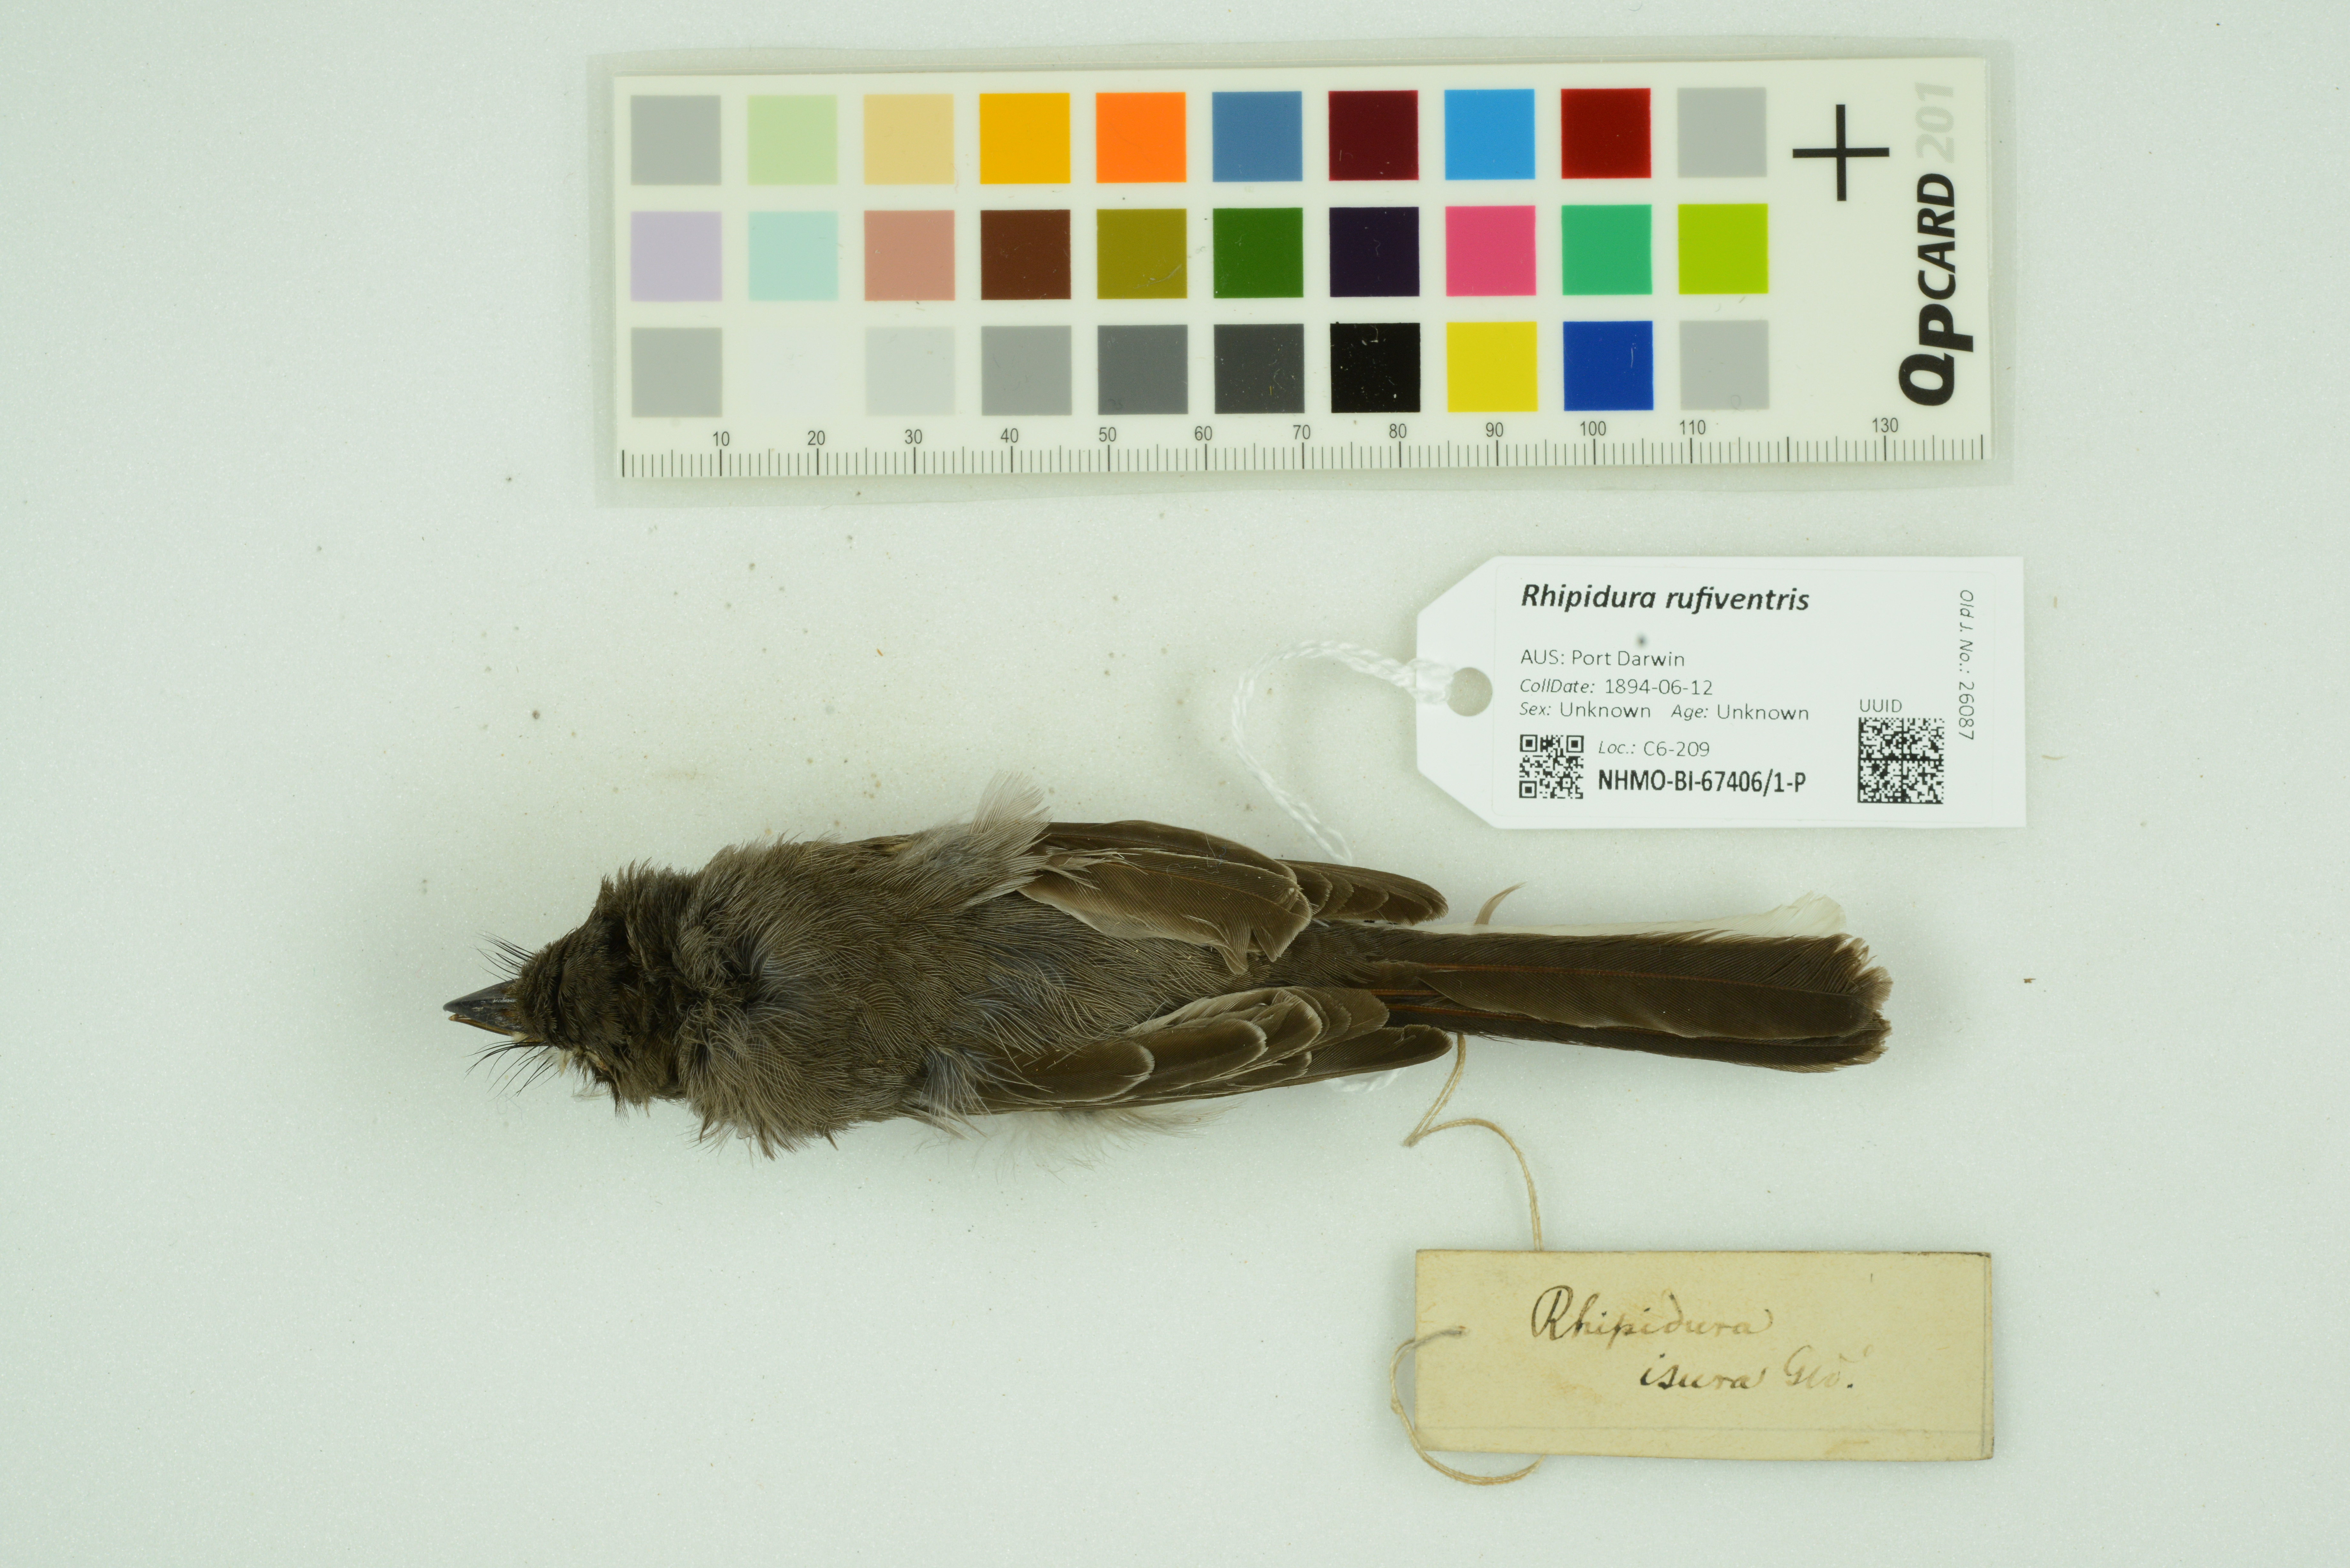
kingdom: Animalia
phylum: Chordata
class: Aves
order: Passeriformes
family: Rhipiduridae
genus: Rhipidura
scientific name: Rhipidura rufiventris
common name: Northern fantail
